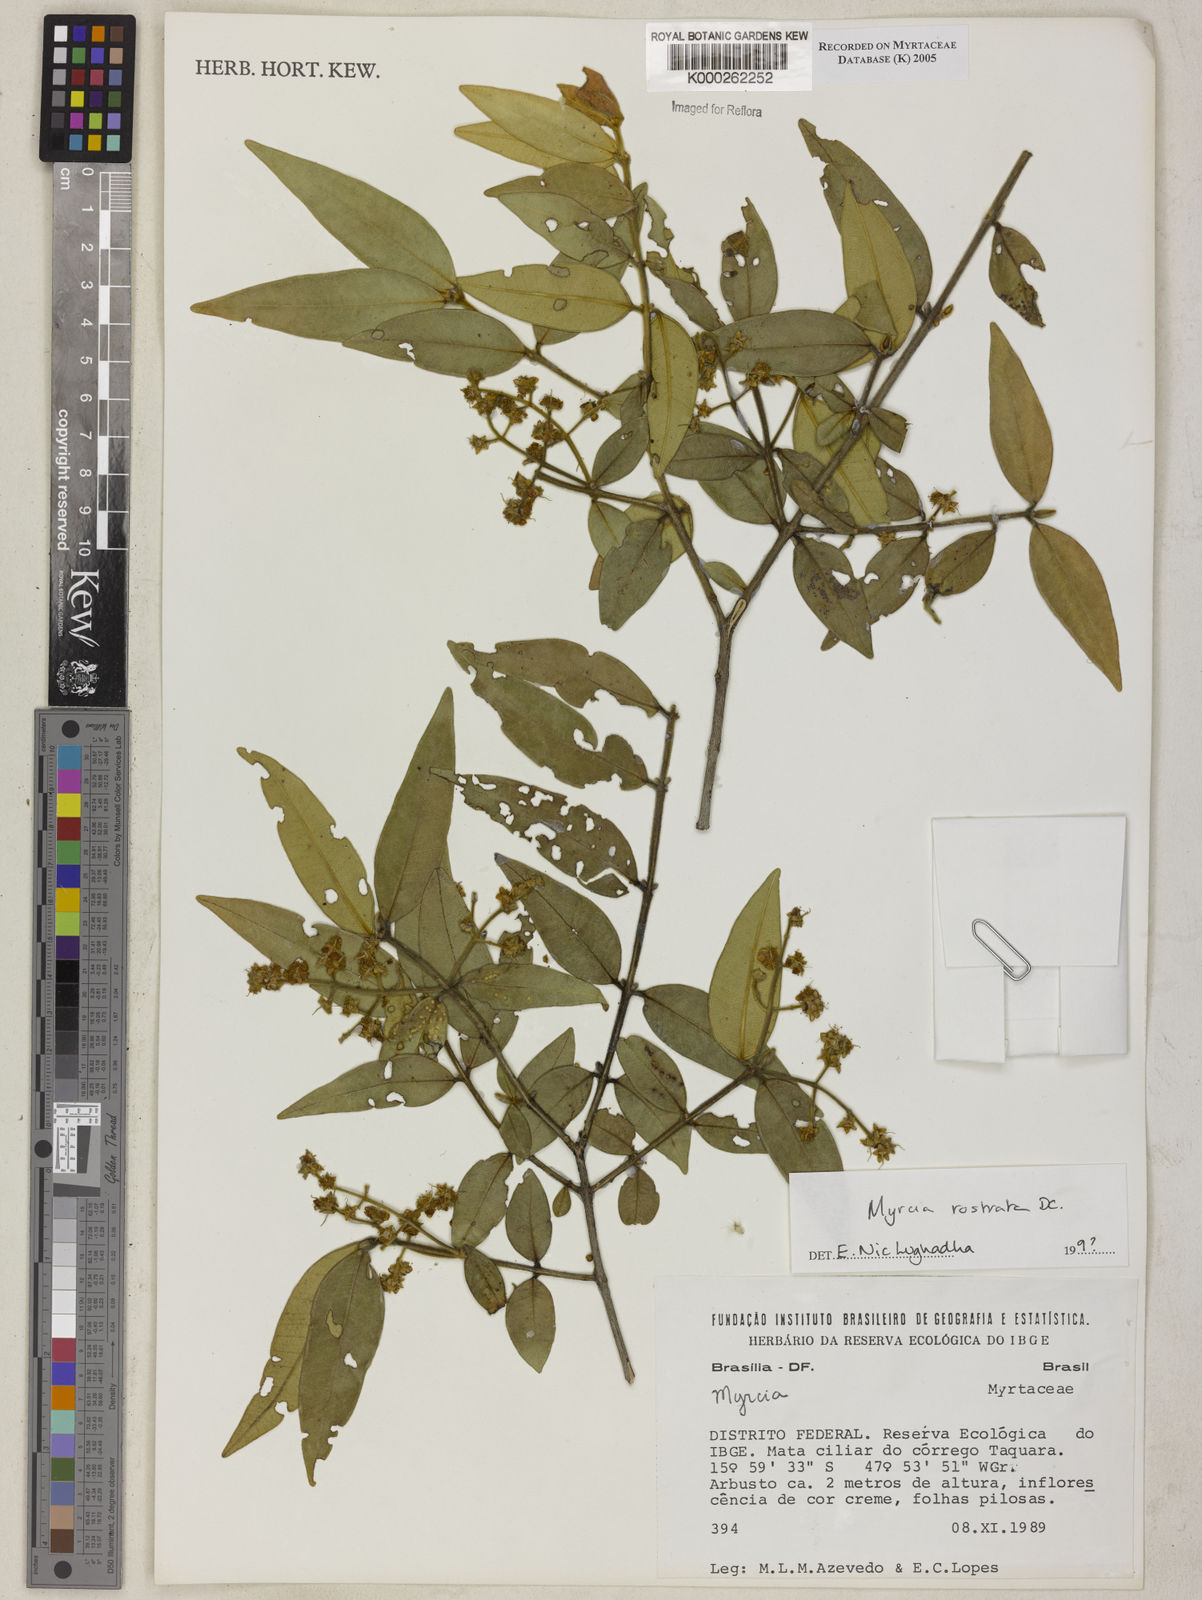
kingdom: Plantae
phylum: Tracheophyta
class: Magnoliopsida
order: Myrtales
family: Myrtaceae
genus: Myrcia
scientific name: Myrcia splendens
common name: Surinam cherry
